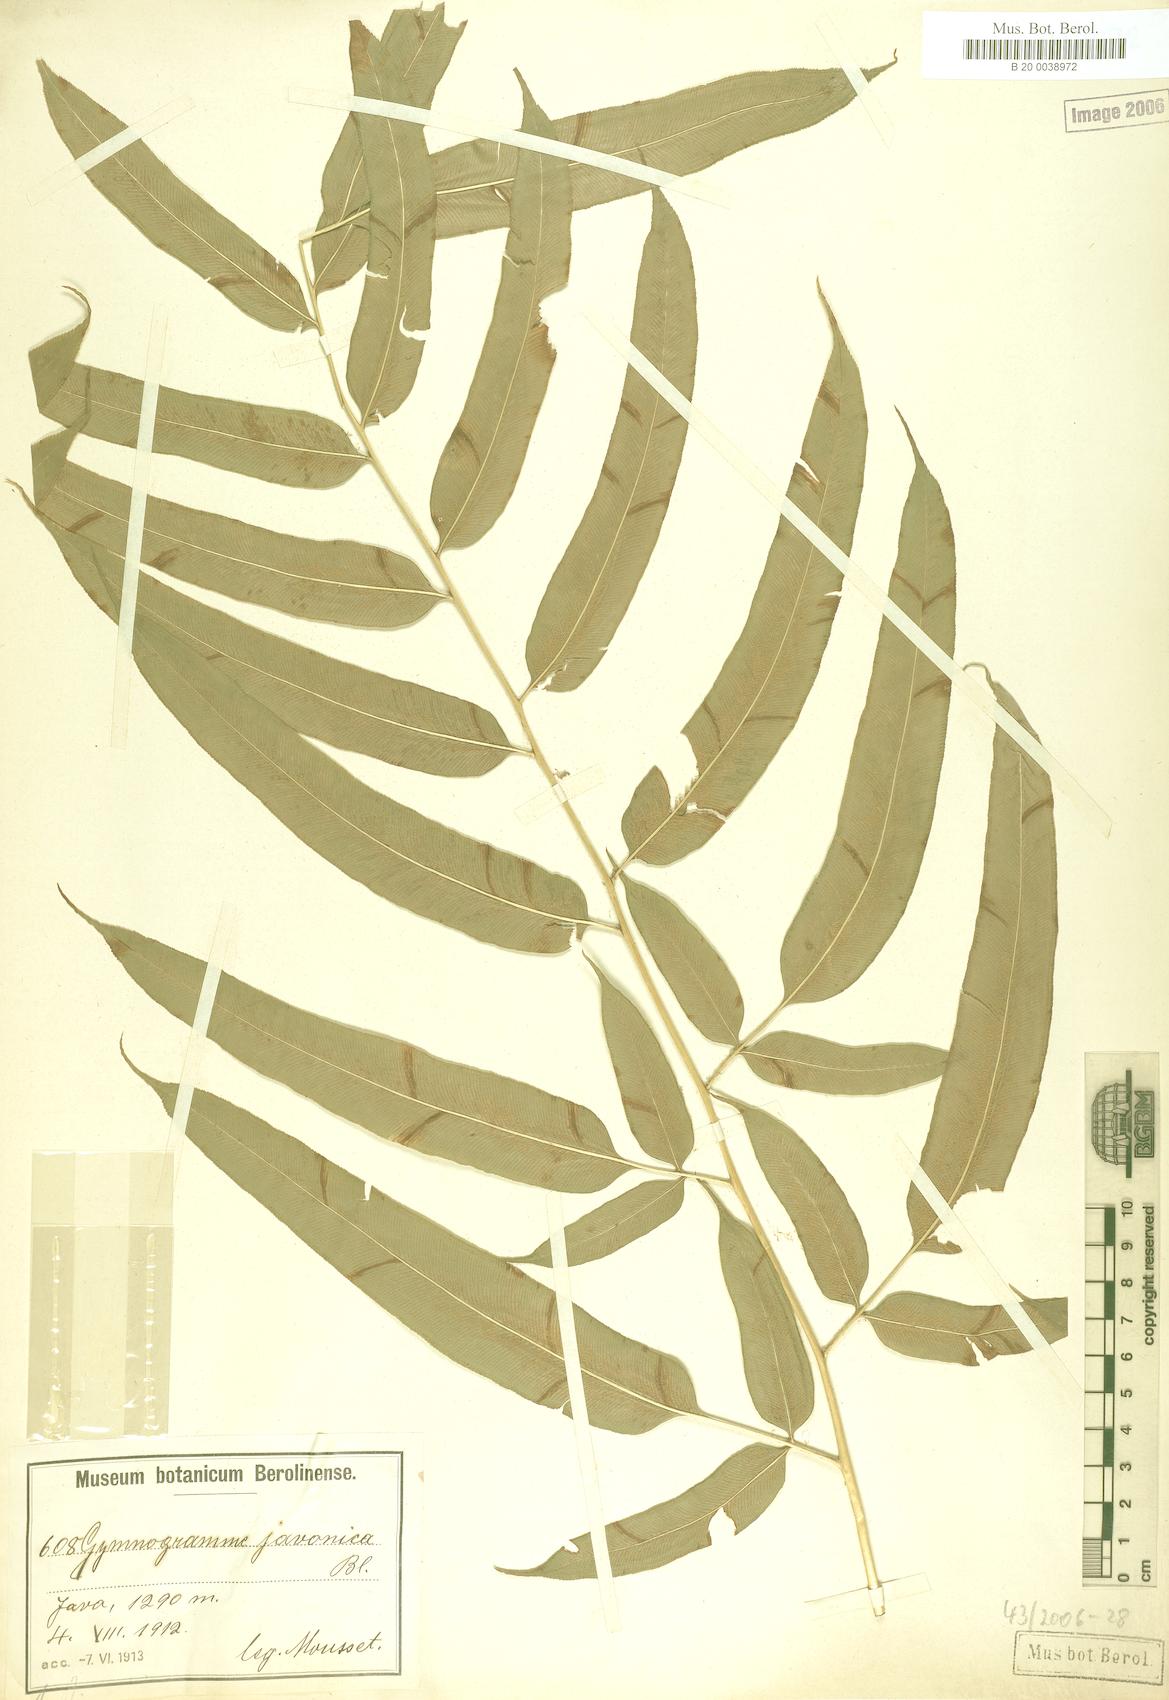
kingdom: Plantae
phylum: Tracheophyta
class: Polypodiopsida
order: Polypodiales
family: Pteridaceae
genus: Coniogramme
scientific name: Coniogramme serrulata
